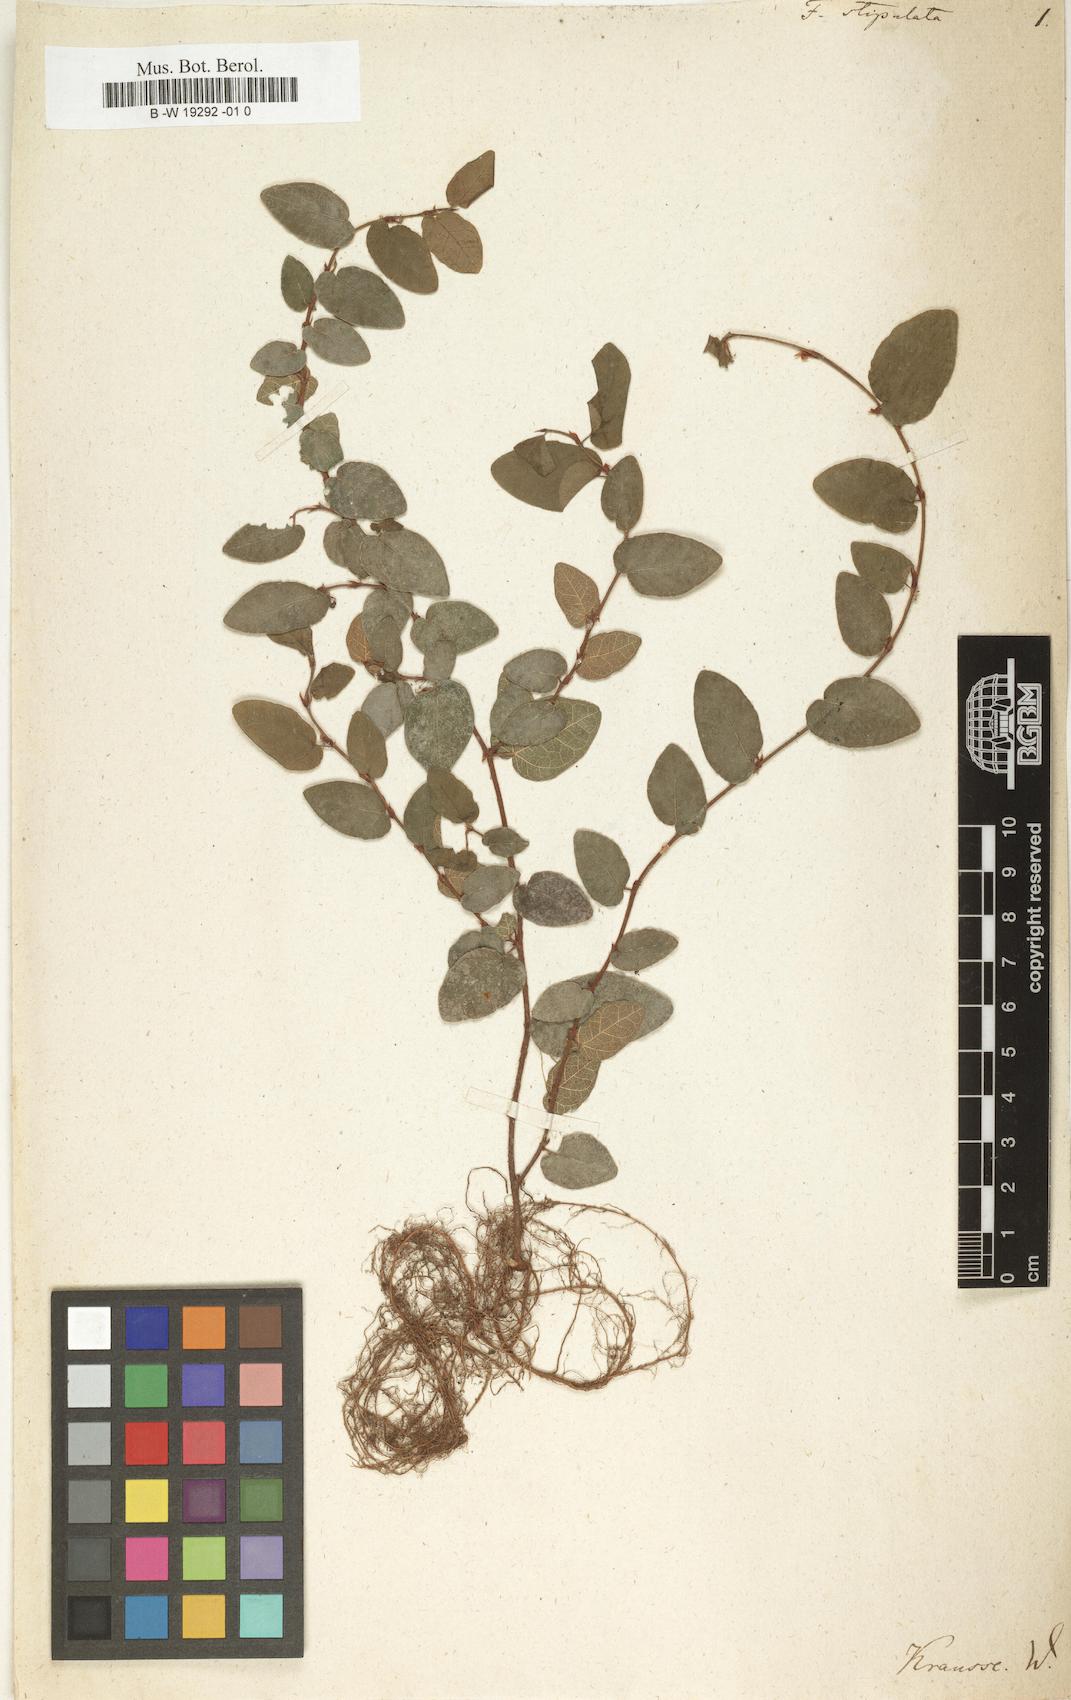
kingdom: Plantae
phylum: Tracheophyta
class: Magnoliopsida
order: Rosales
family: Moraceae
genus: Ficus
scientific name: Ficus stipulata
